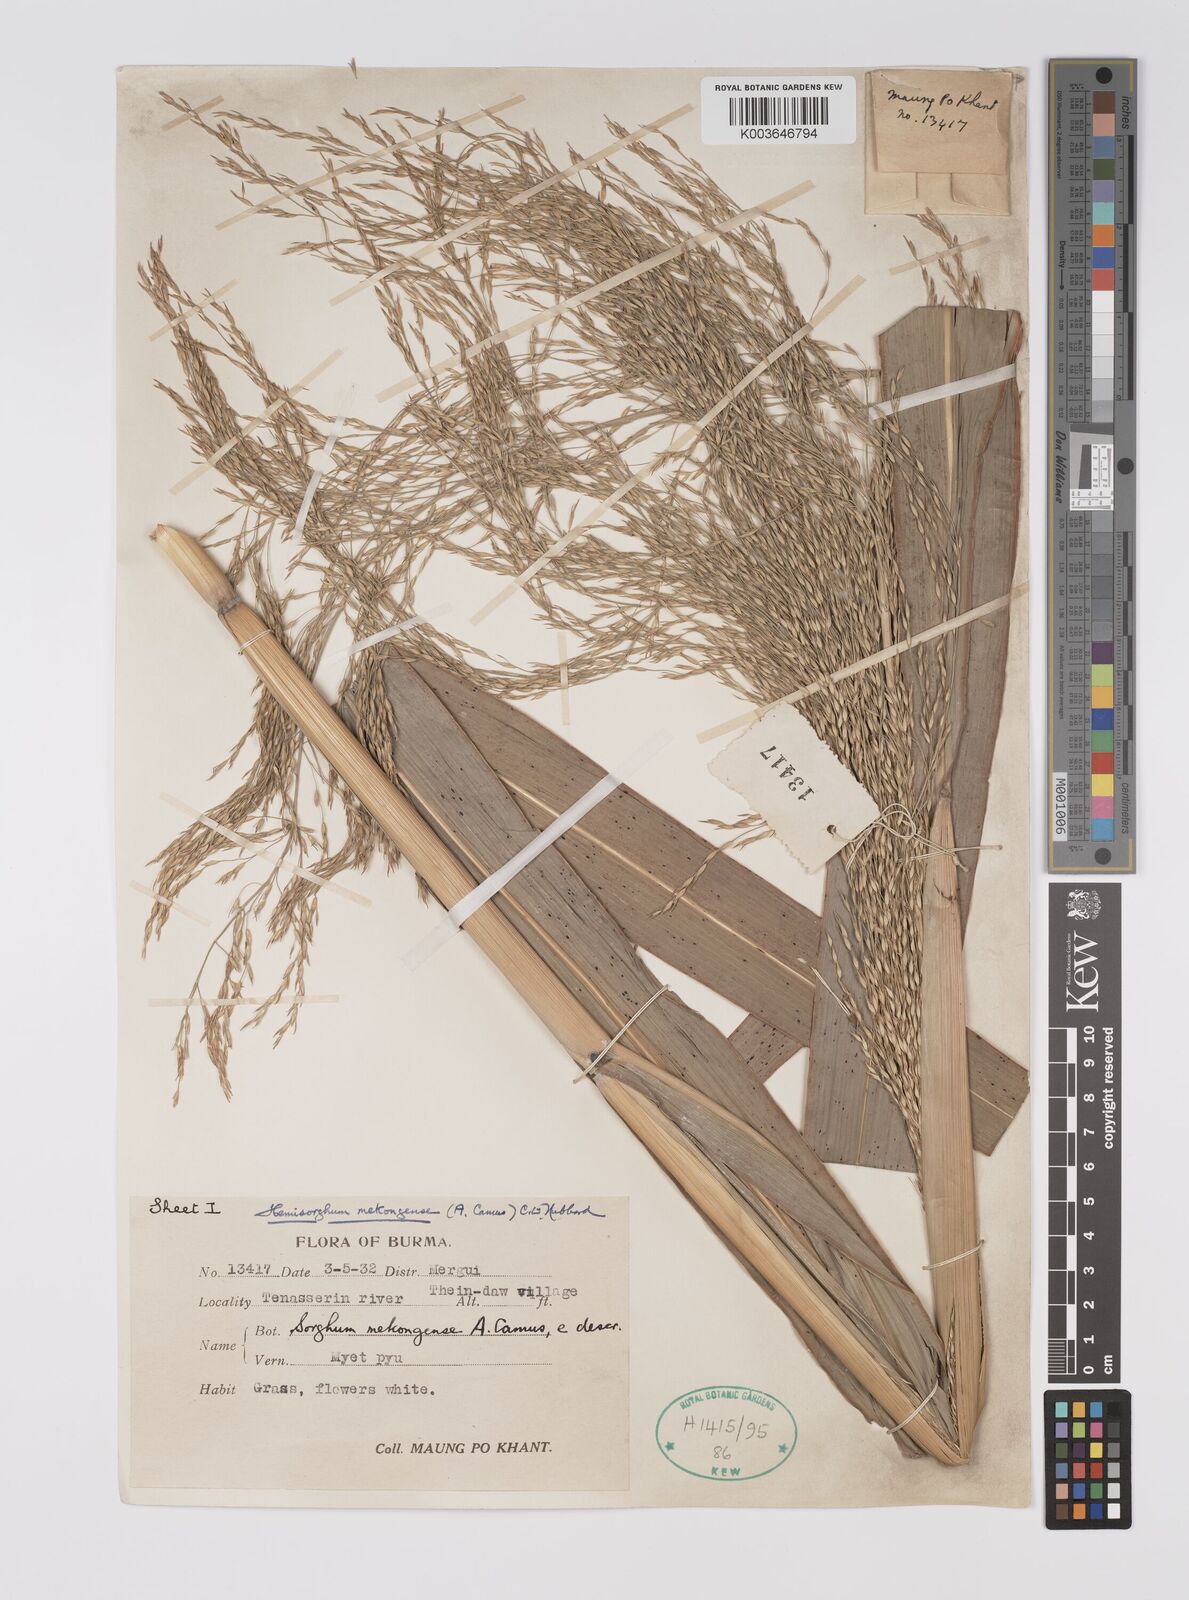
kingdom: Plantae
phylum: Tracheophyta
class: Liliopsida
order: Poales
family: Poaceae
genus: Hemisorghum
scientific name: Hemisorghum mekongense
